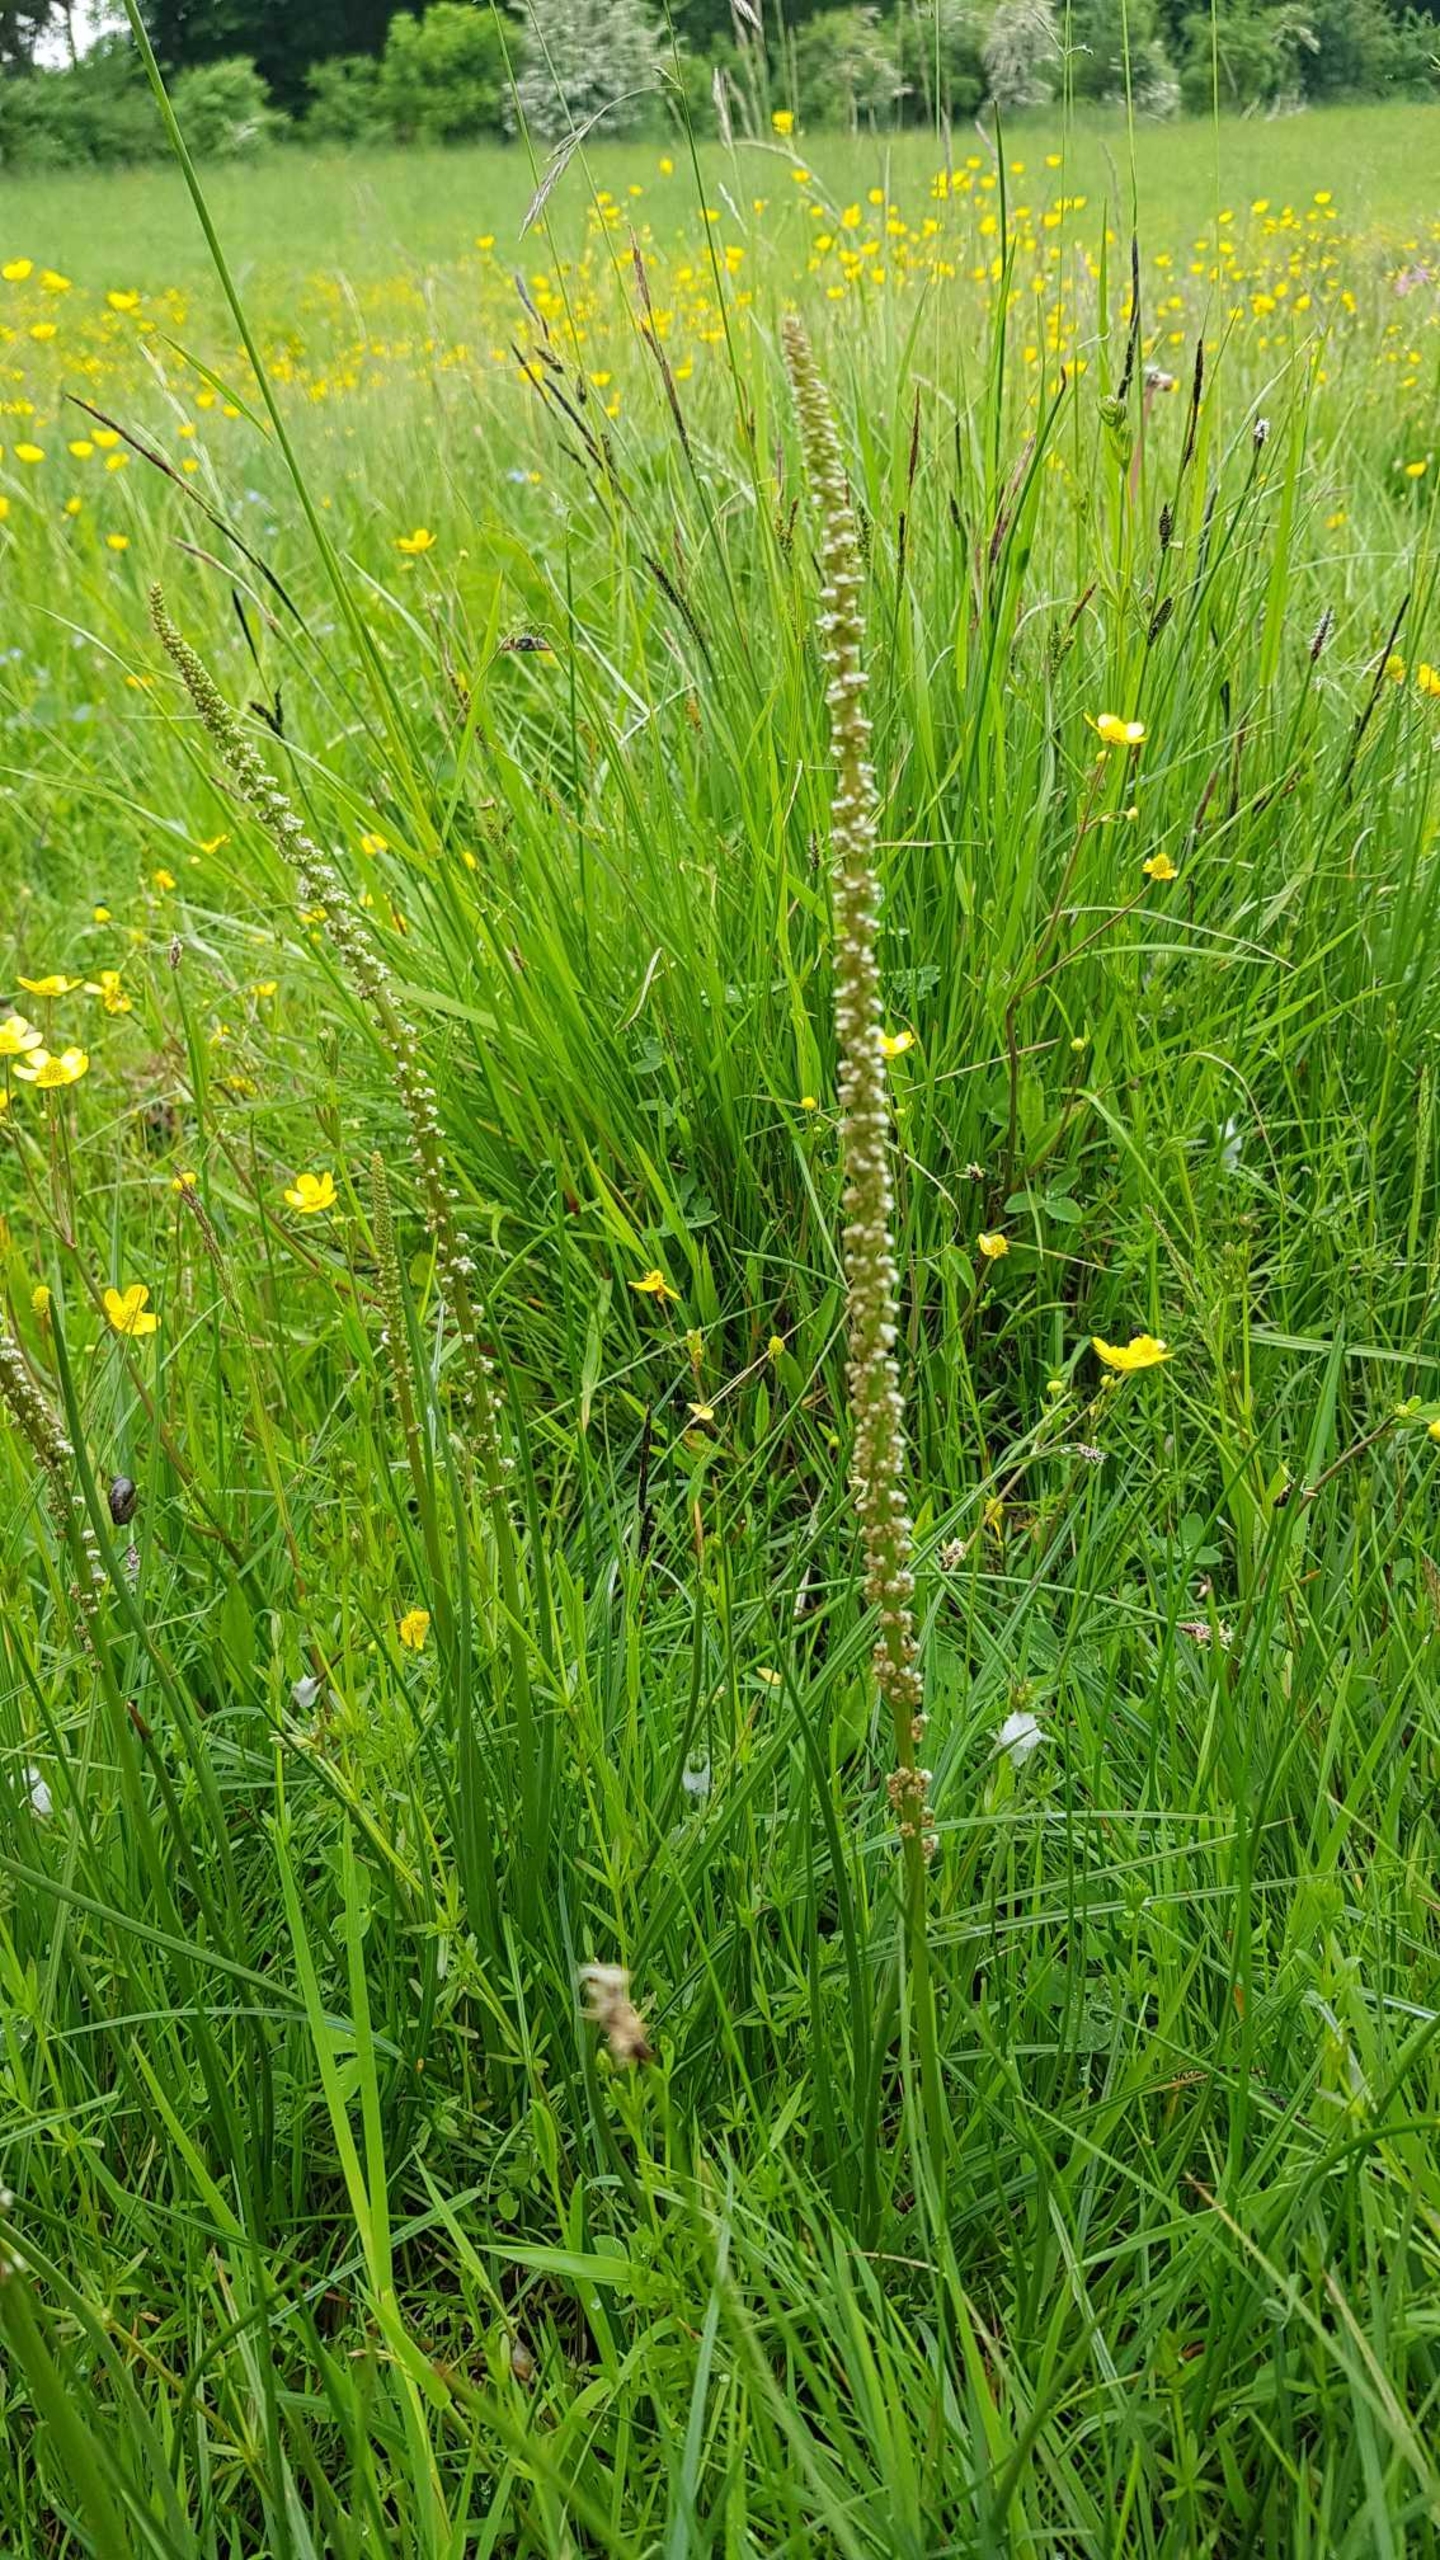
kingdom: Plantae
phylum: Tracheophyta
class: Liliopsida
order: Alismatales
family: Juncaginaceae
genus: Triglochin
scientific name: Triglochin maritima
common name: Strand-trehage
